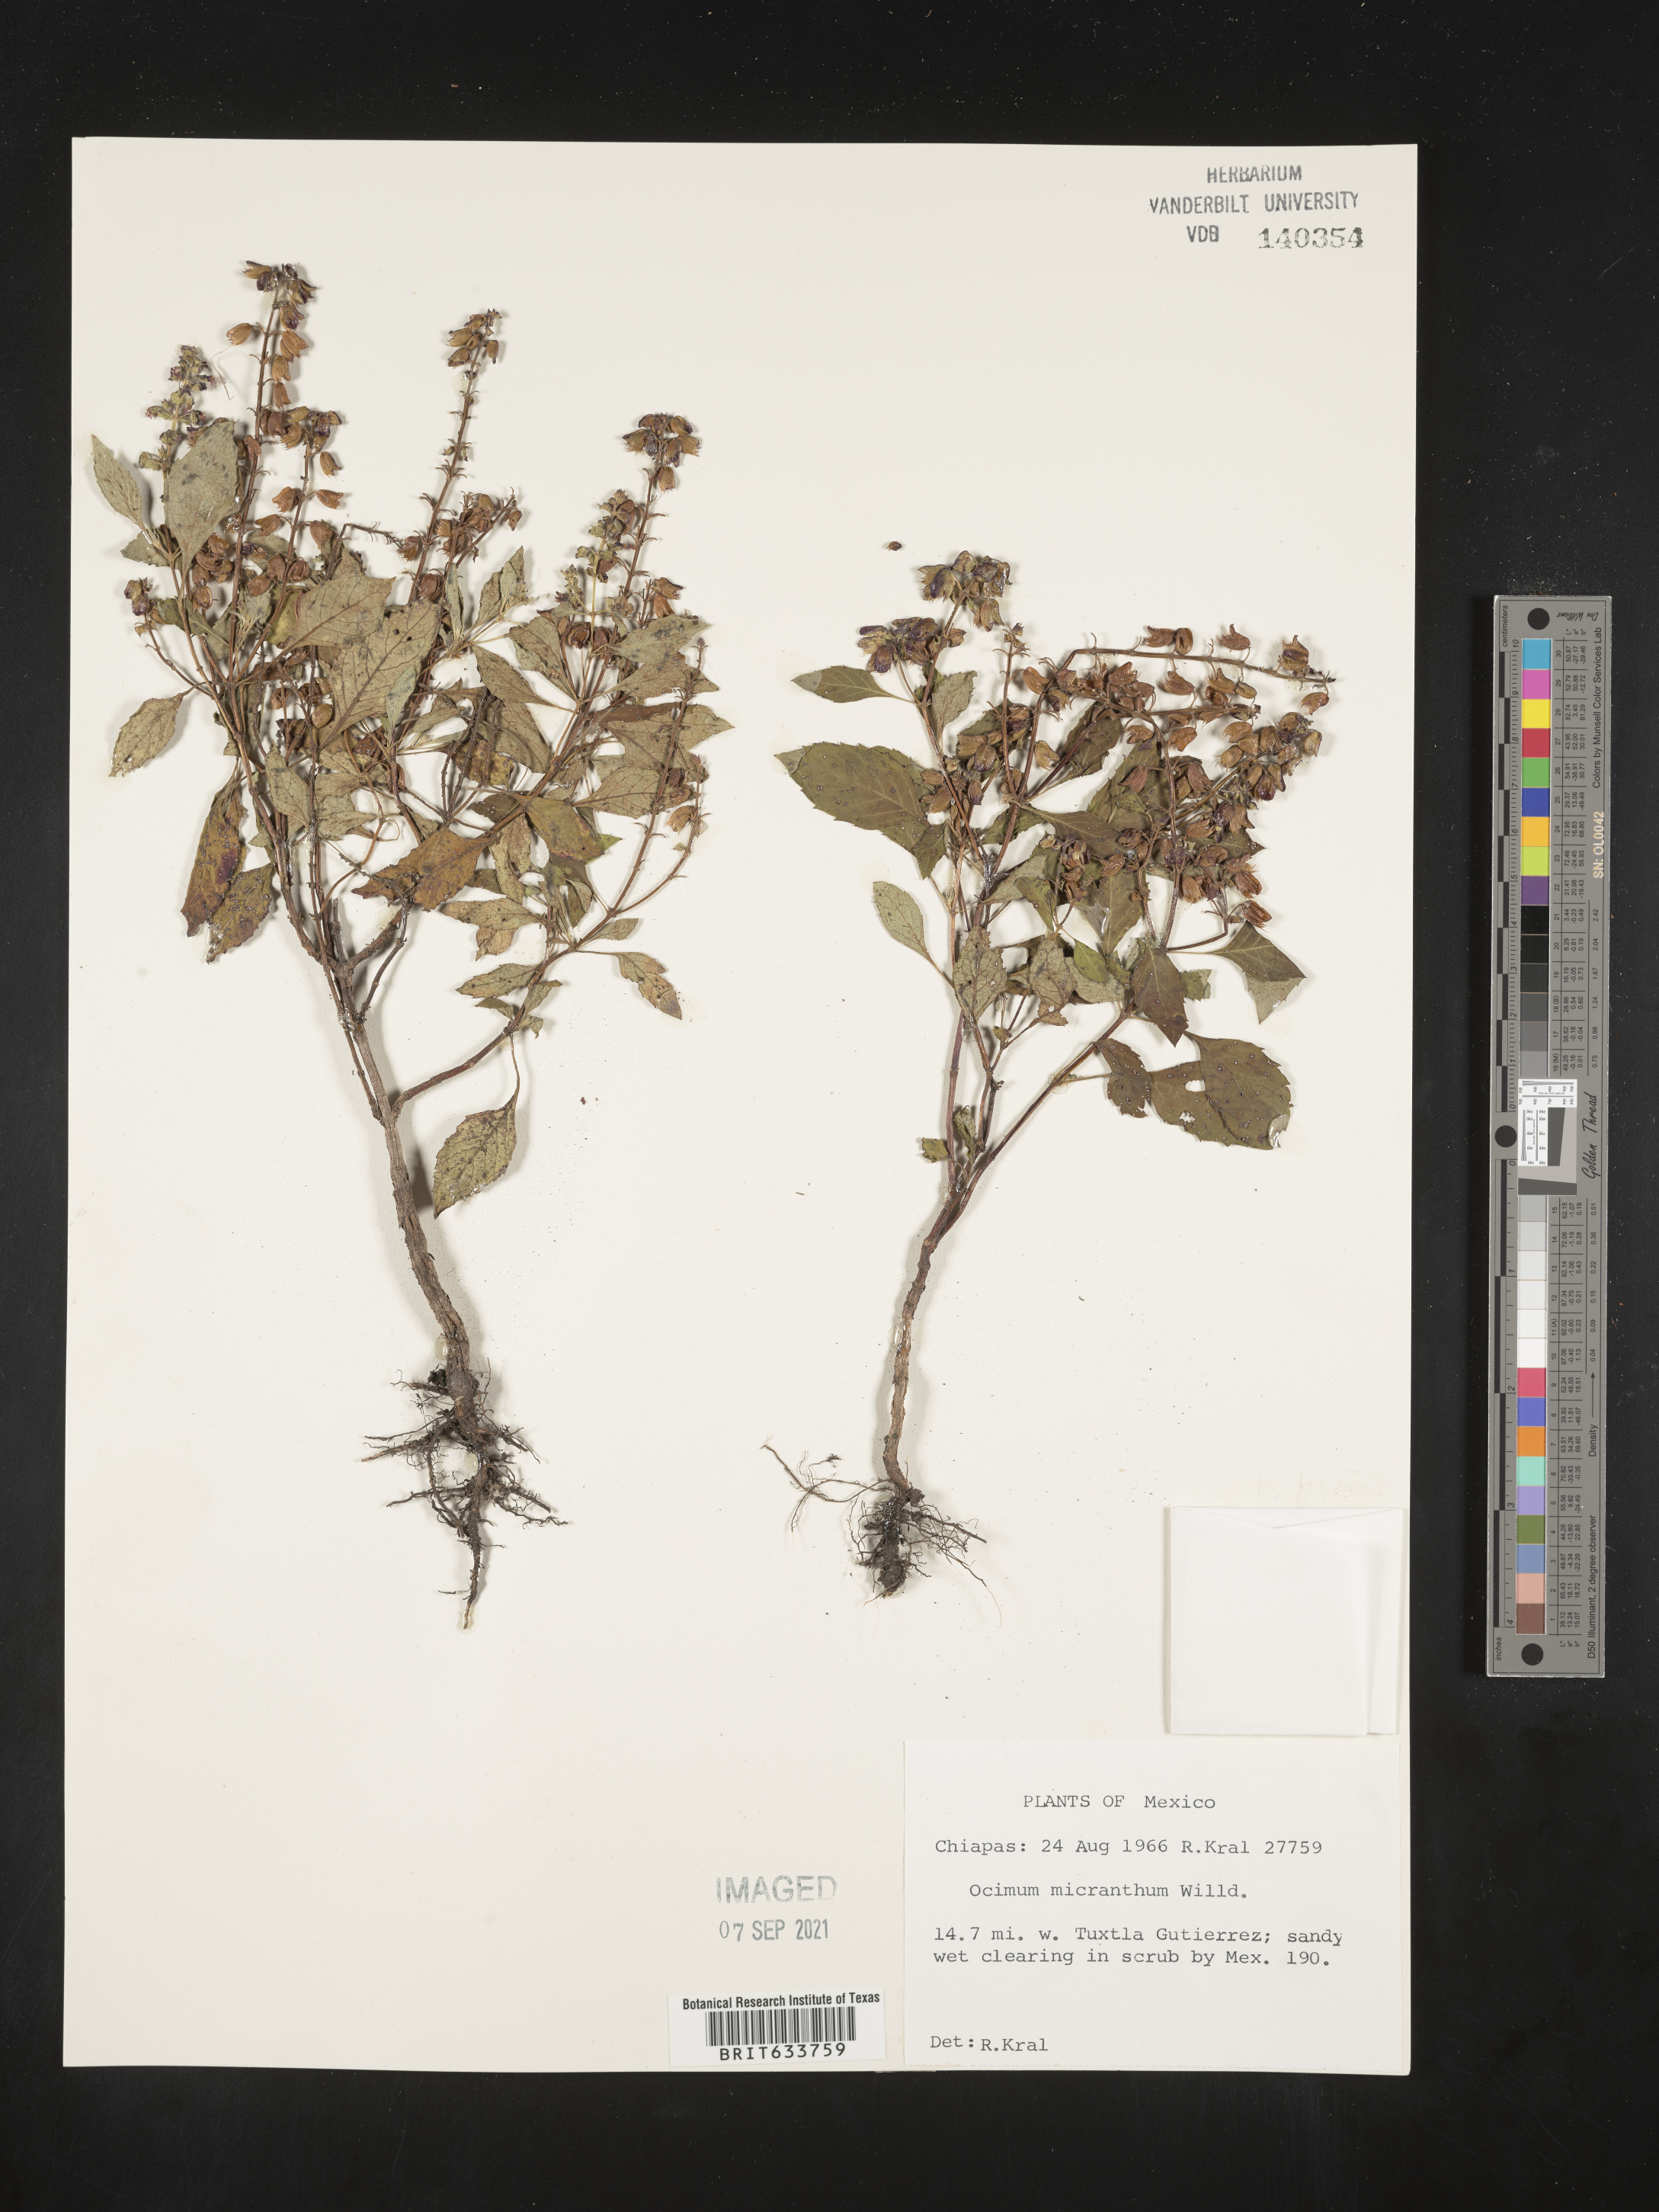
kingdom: Plantae
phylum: Tracheophyta
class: Magnoliopsida
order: Lamiales
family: Lamiaceae
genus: Ocimum
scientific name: Ocimum
